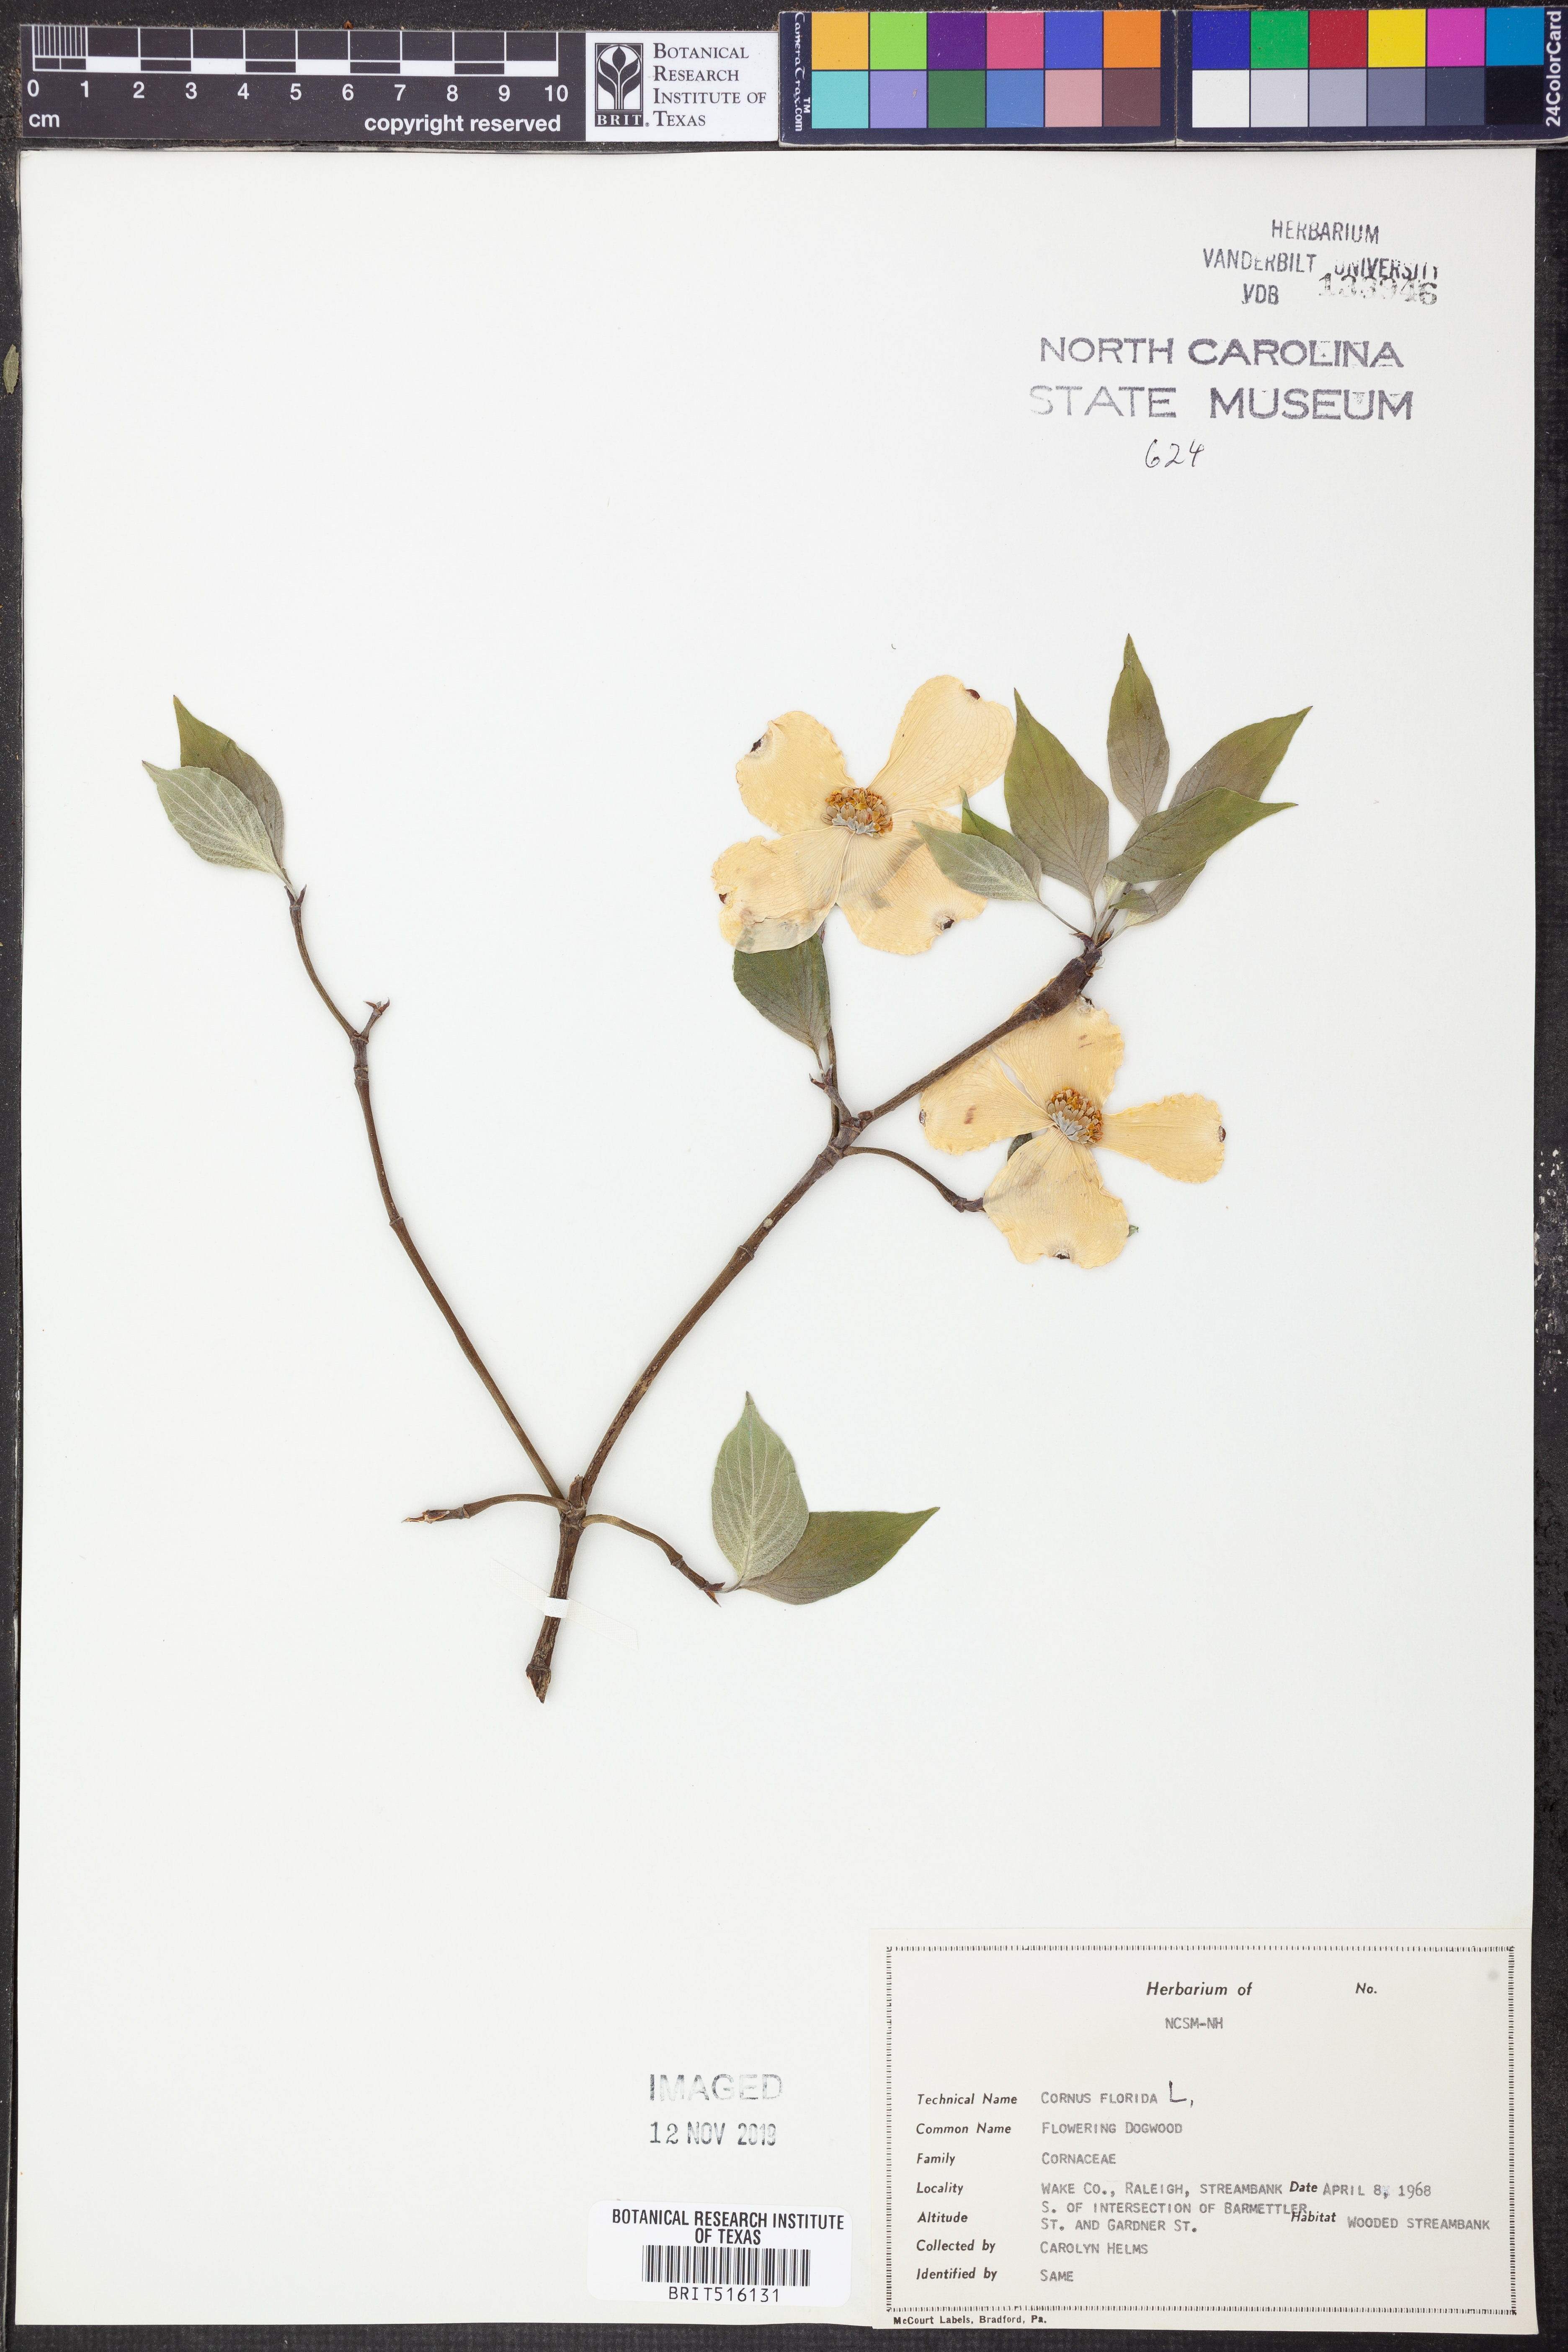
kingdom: Plantae
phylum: Tracheophyta
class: Magnoliopsida
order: Cornales
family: Cornaceae
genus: Cornus
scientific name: Cornus florida
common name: Flowering dogwood
